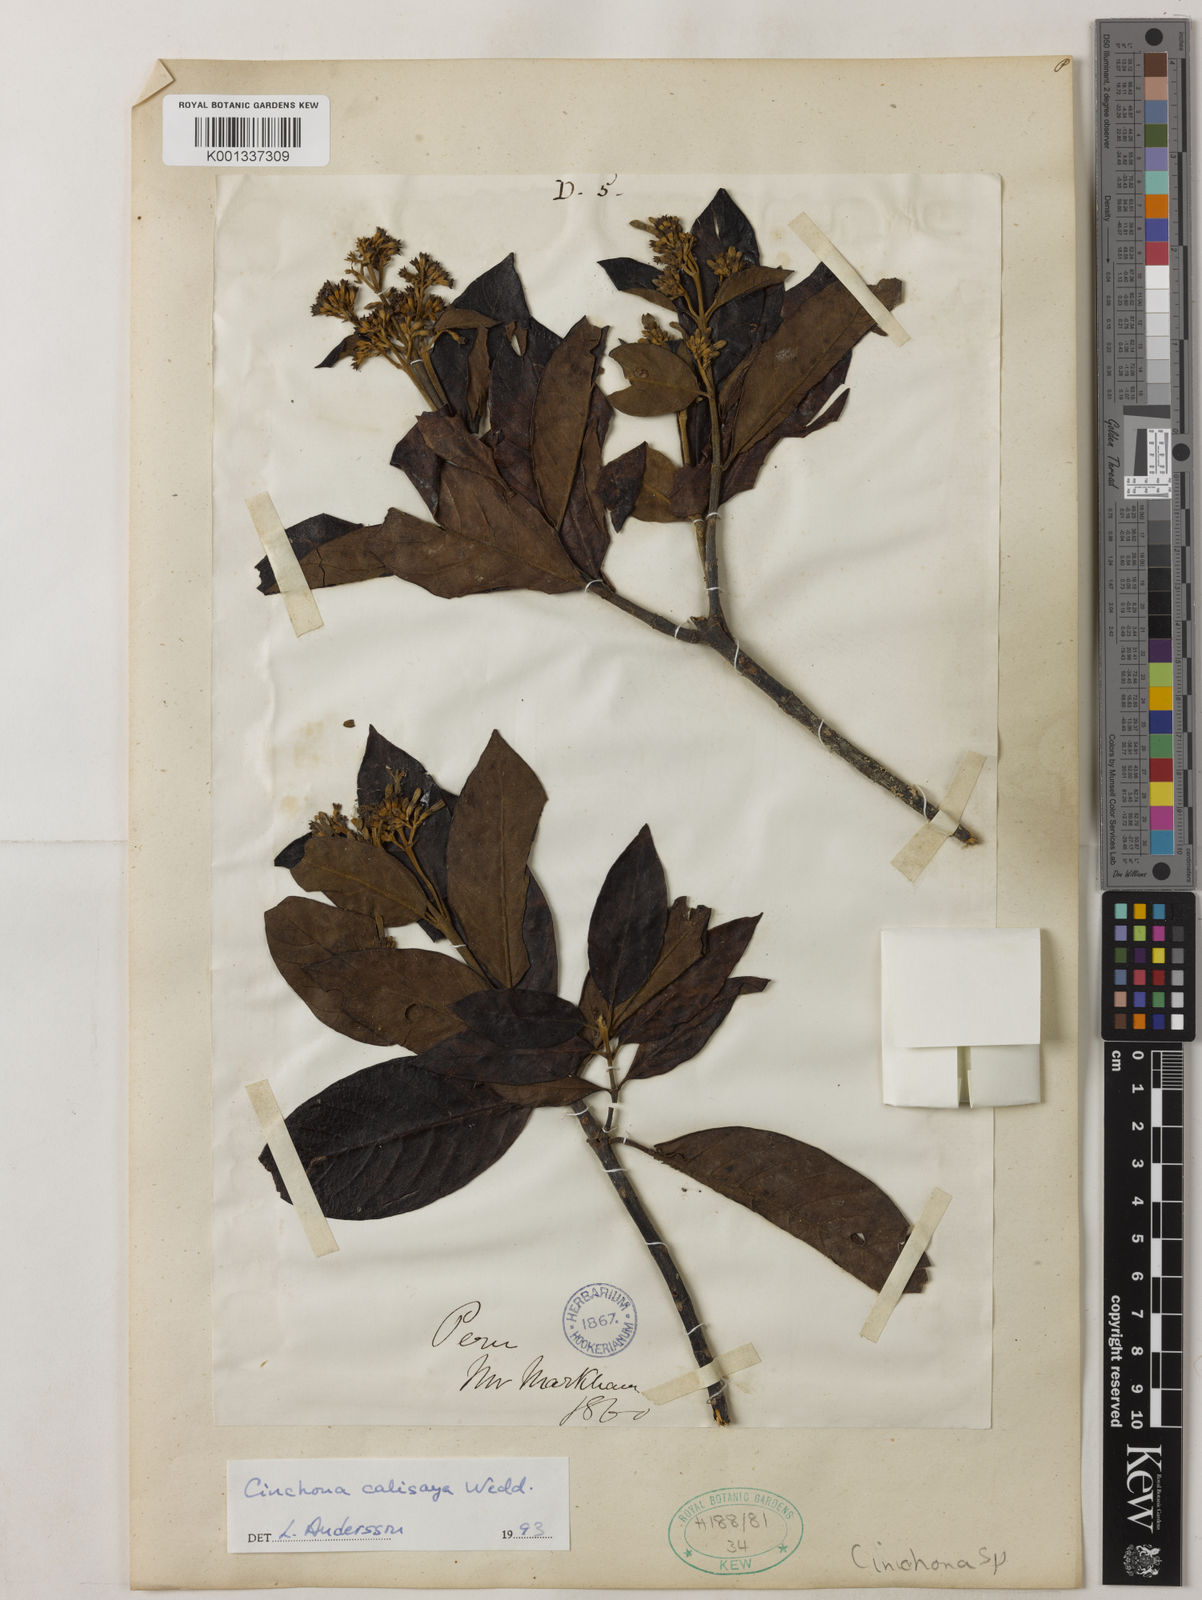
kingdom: Plantae
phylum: Tracheophyta
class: Magnoliopsida
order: Gentianales
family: Rubiaceae
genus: Cinchona
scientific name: Cinchona calisaya
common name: Ledgerbark
